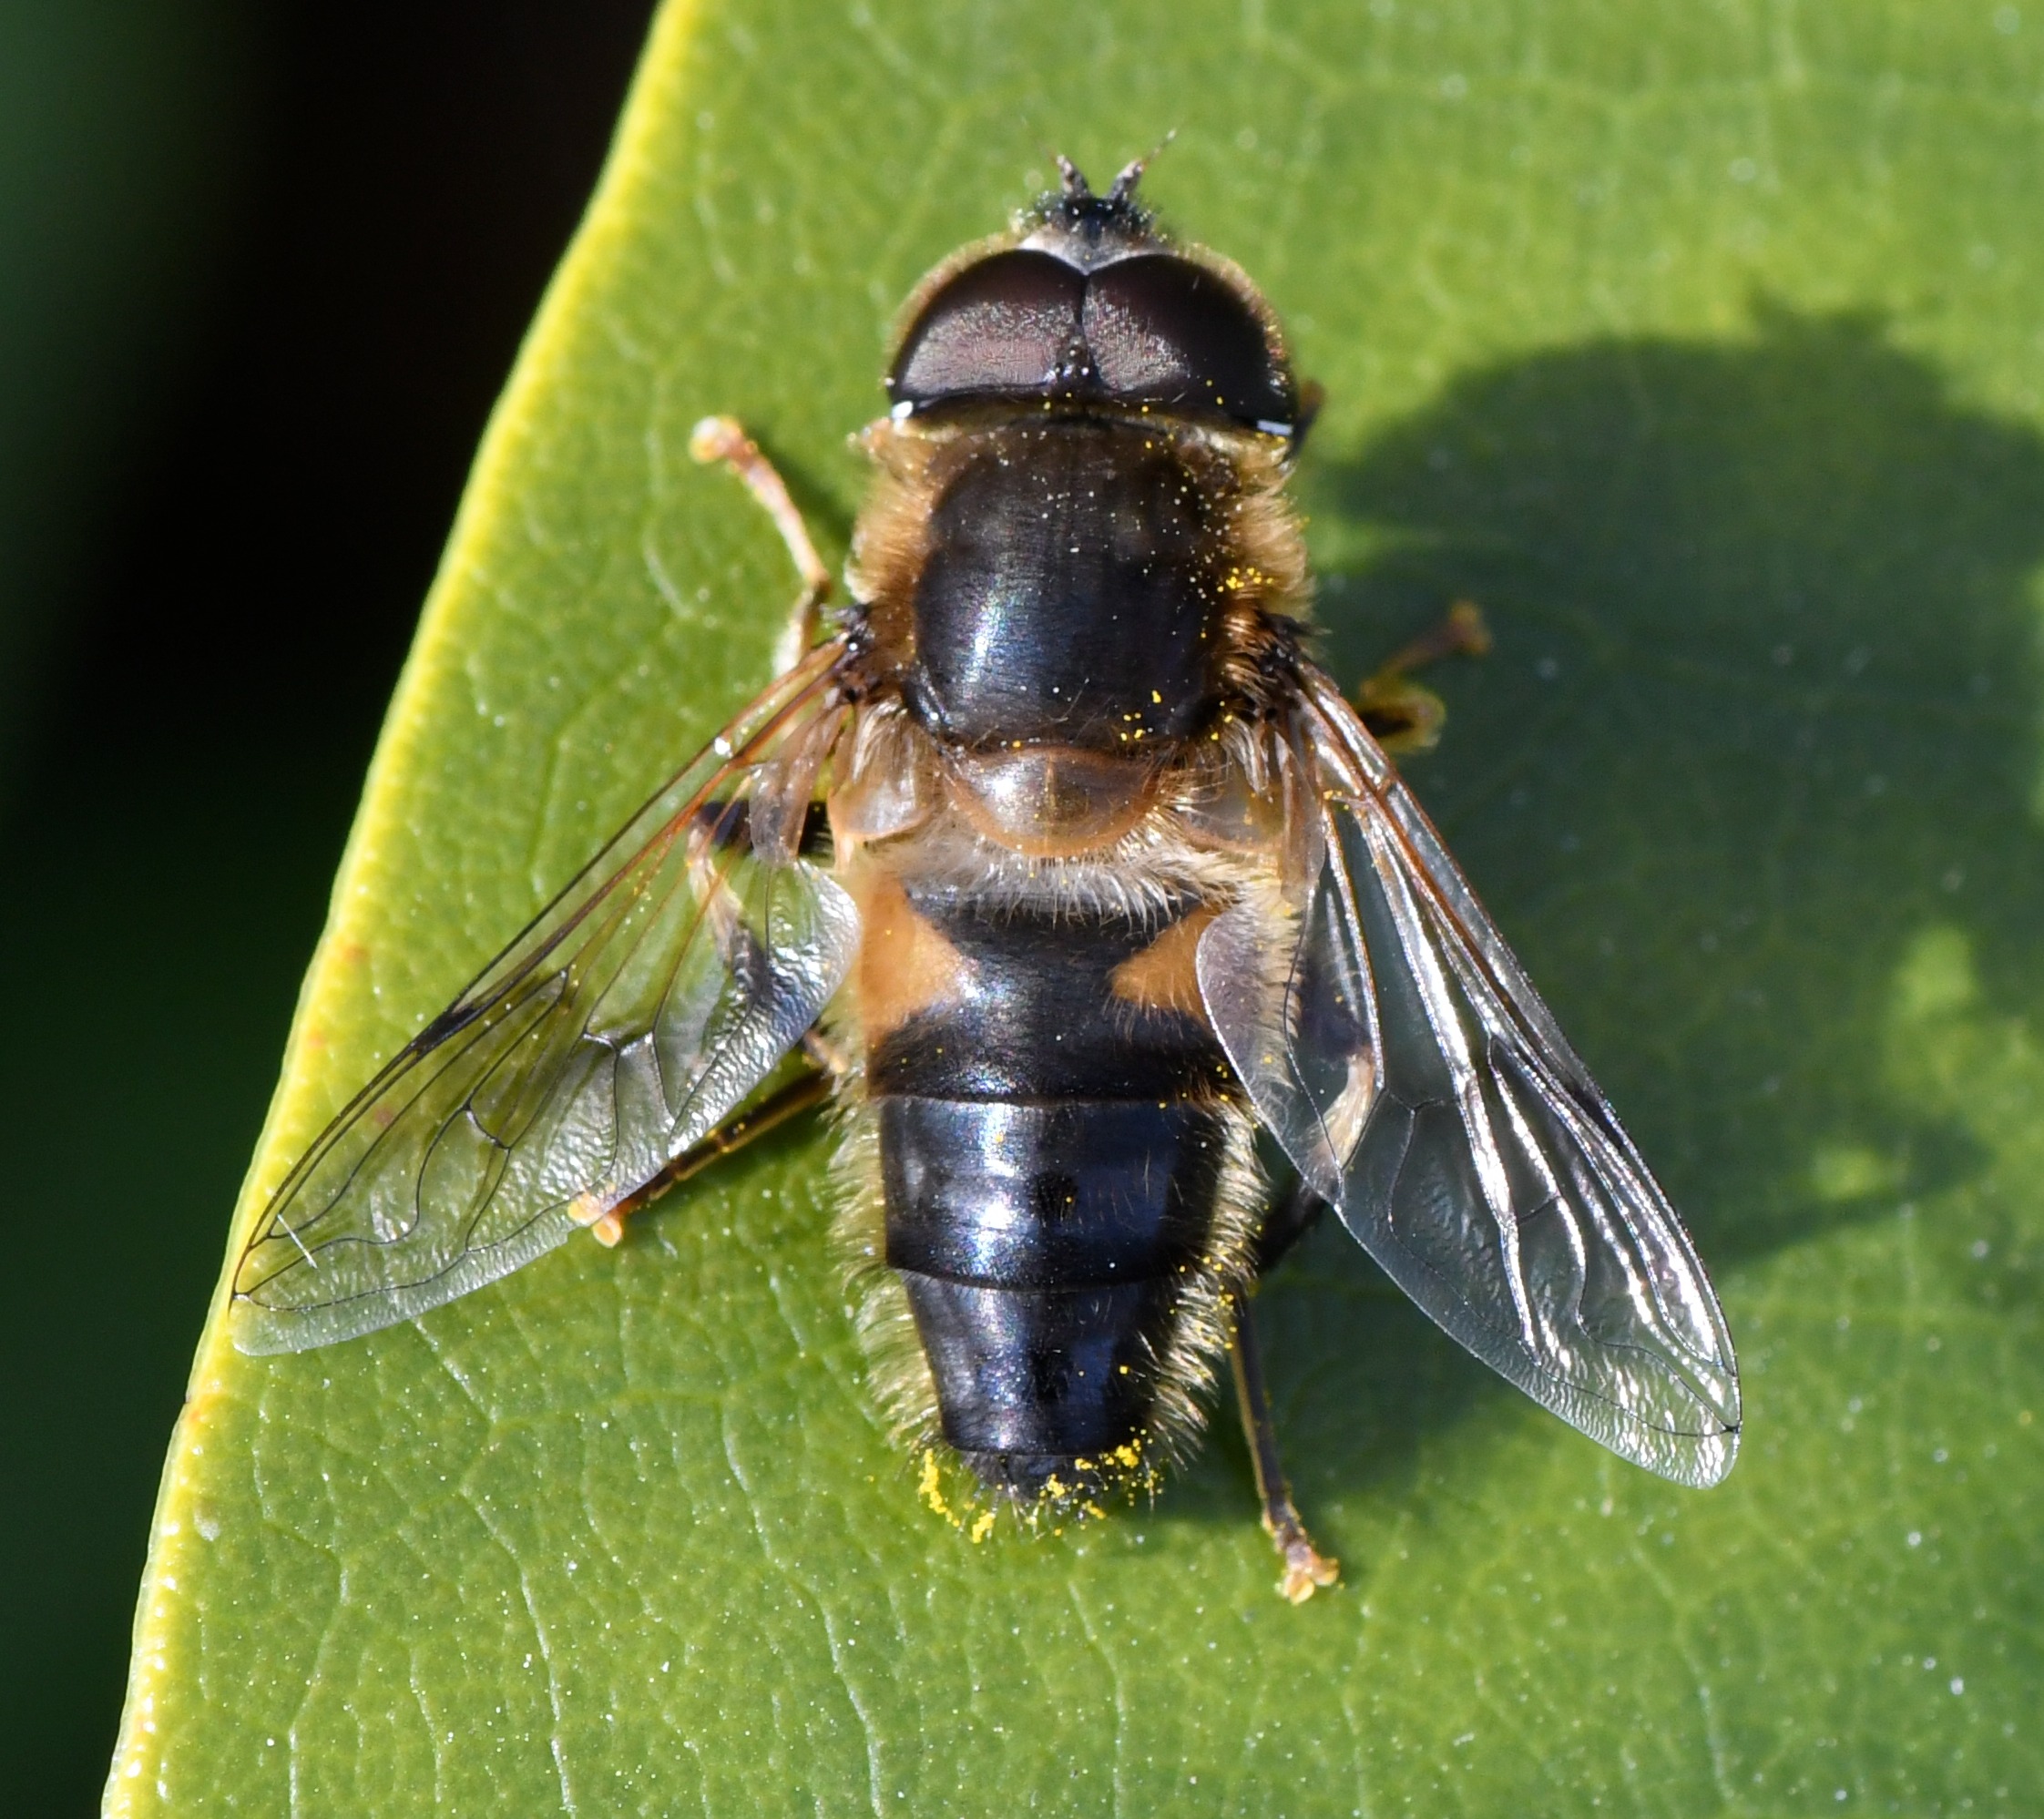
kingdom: Animalia
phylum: Arthropoda
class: Insecta
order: Diptera
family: Syrphidae
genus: Eristalis
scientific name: Eristalis pertinax
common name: Gulfodet dyndflue
